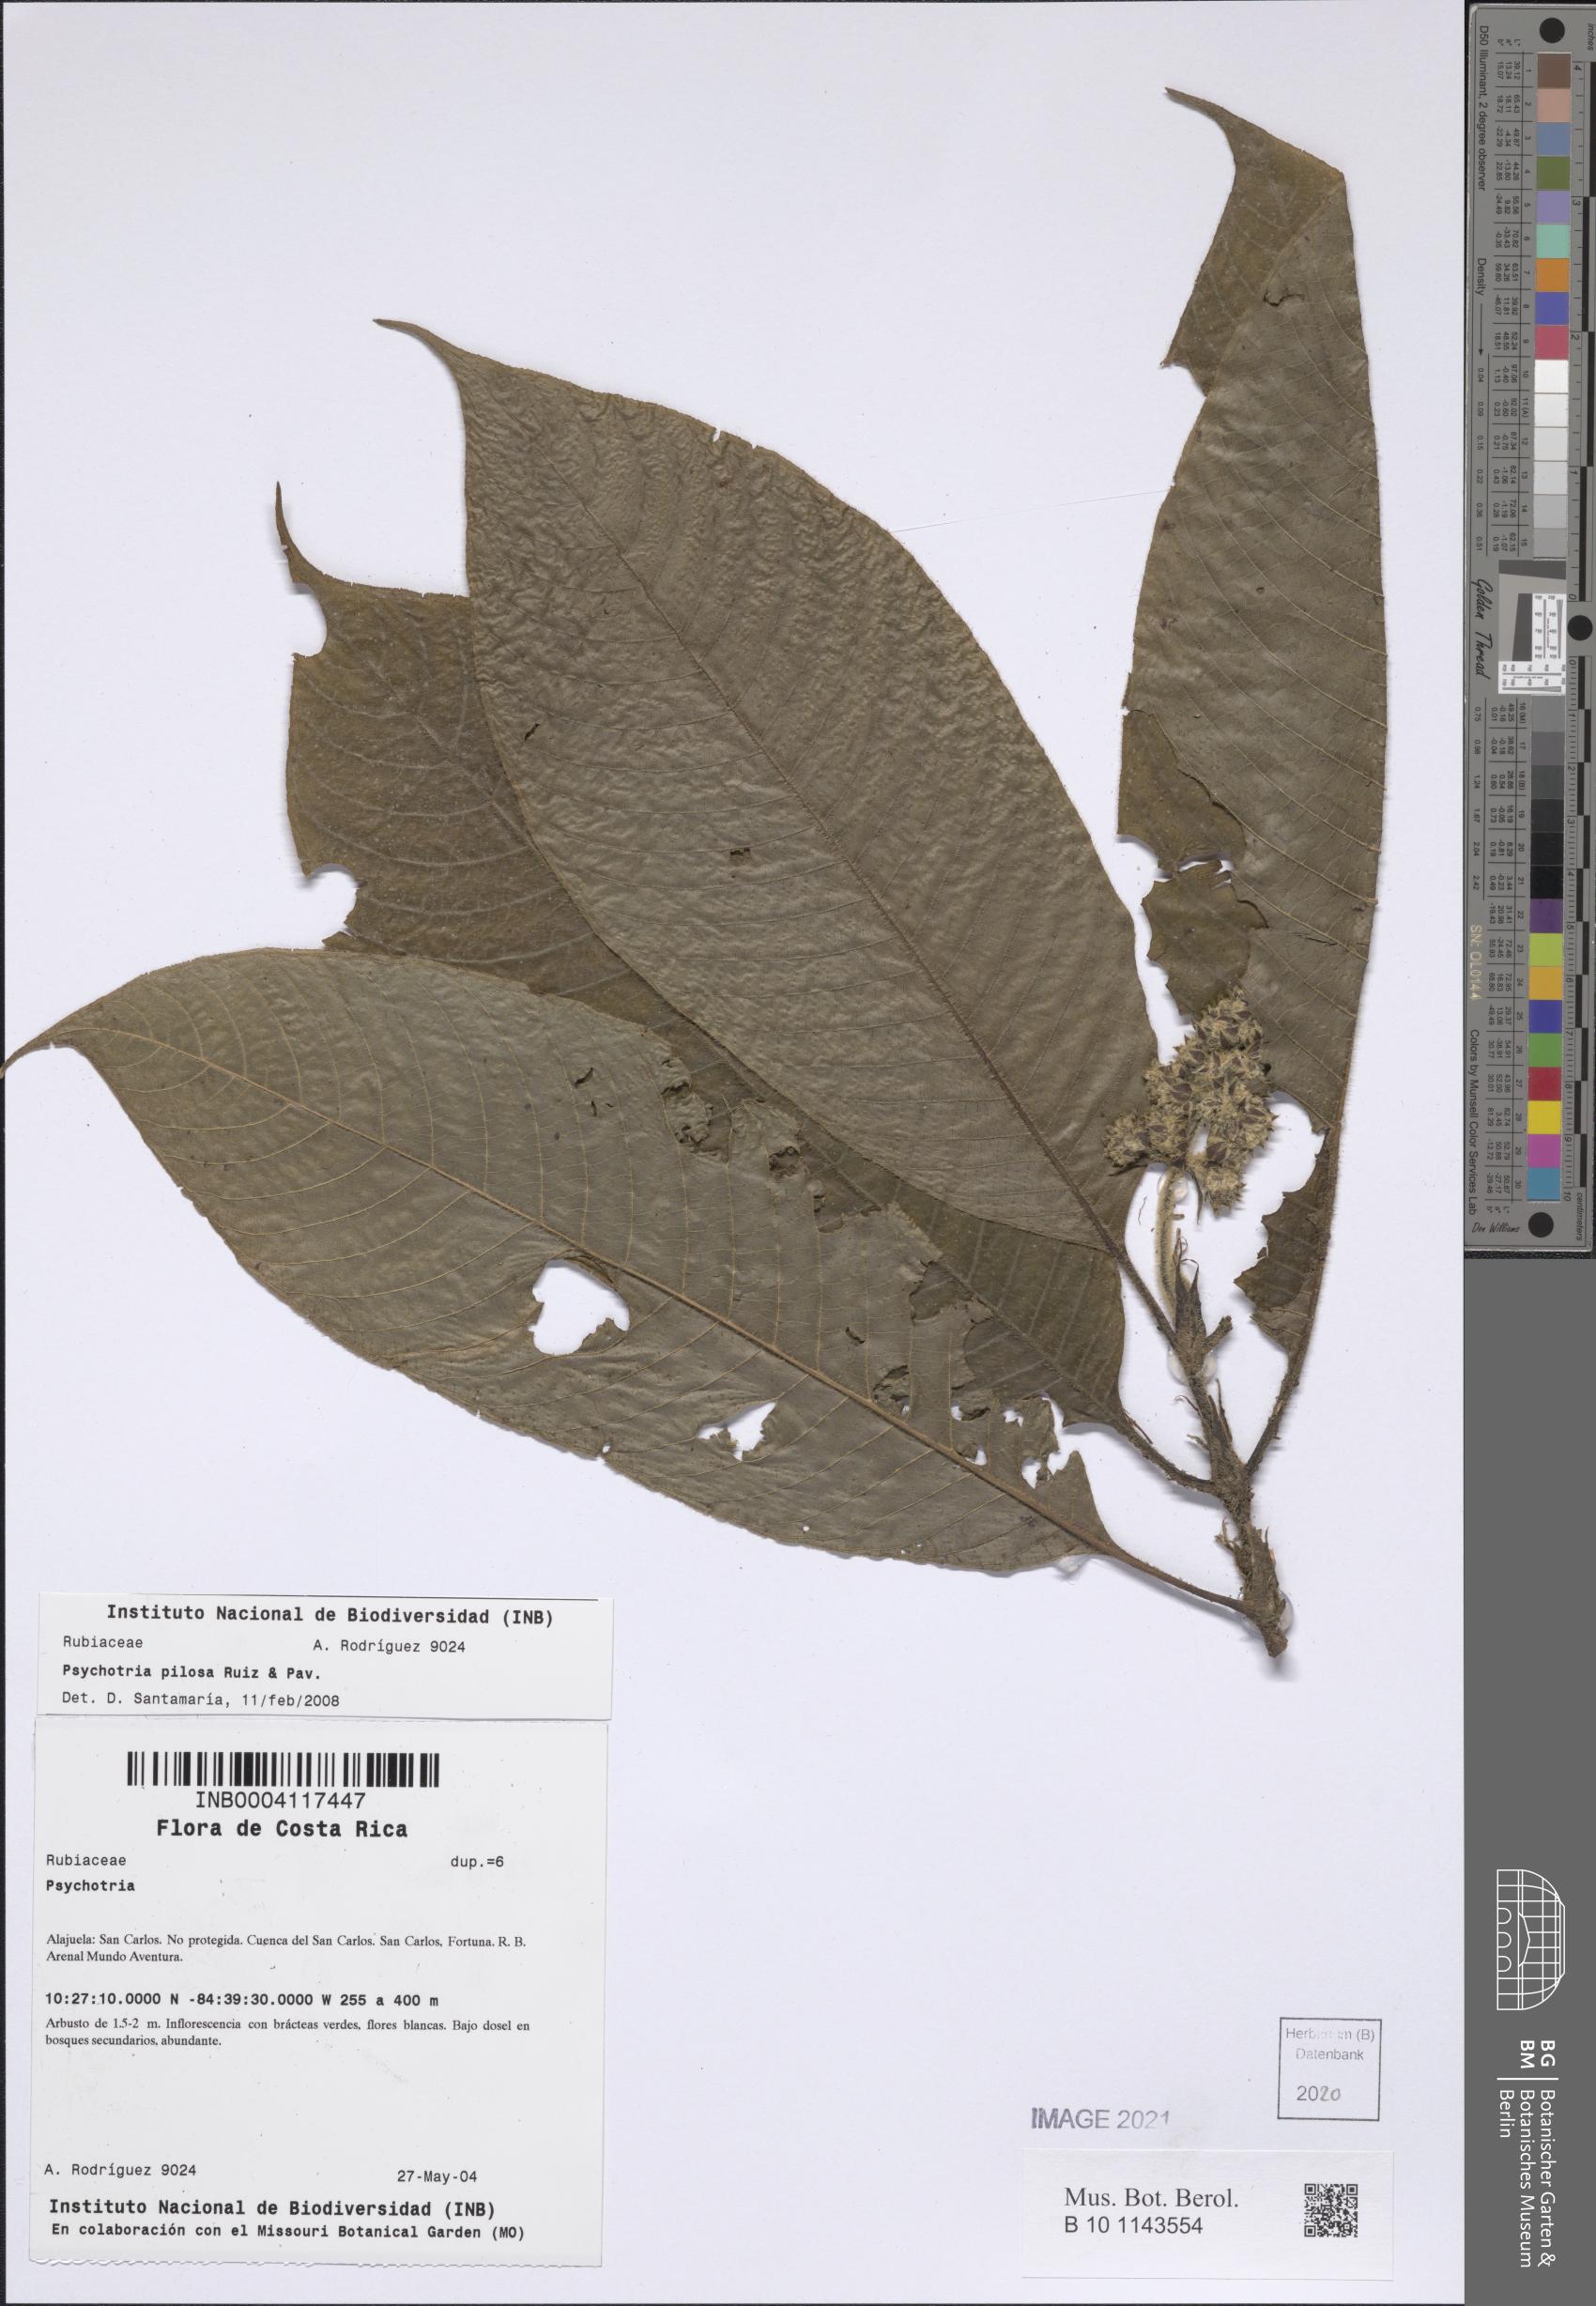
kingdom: Plantae
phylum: Tracheophyta
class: Magnoliopsida
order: Gentianales
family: Rubiaceae
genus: Palicourea
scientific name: Palicourea pilosa
